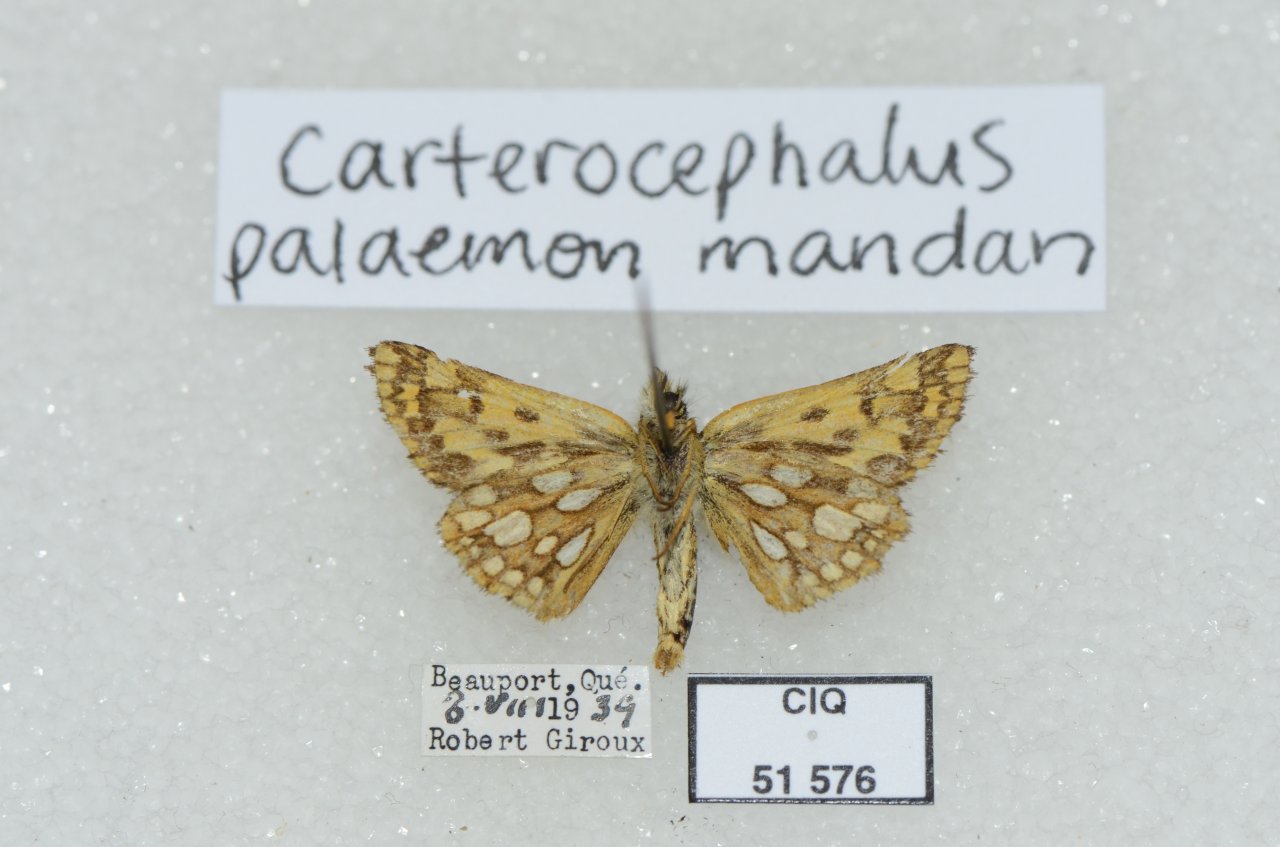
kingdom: Animalia
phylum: Arthropoda
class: Insecta
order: Lepidoptera
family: Hesperiidae
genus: Carterocephalus
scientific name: Carterocephalus palaemon
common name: Chequered Skipper
